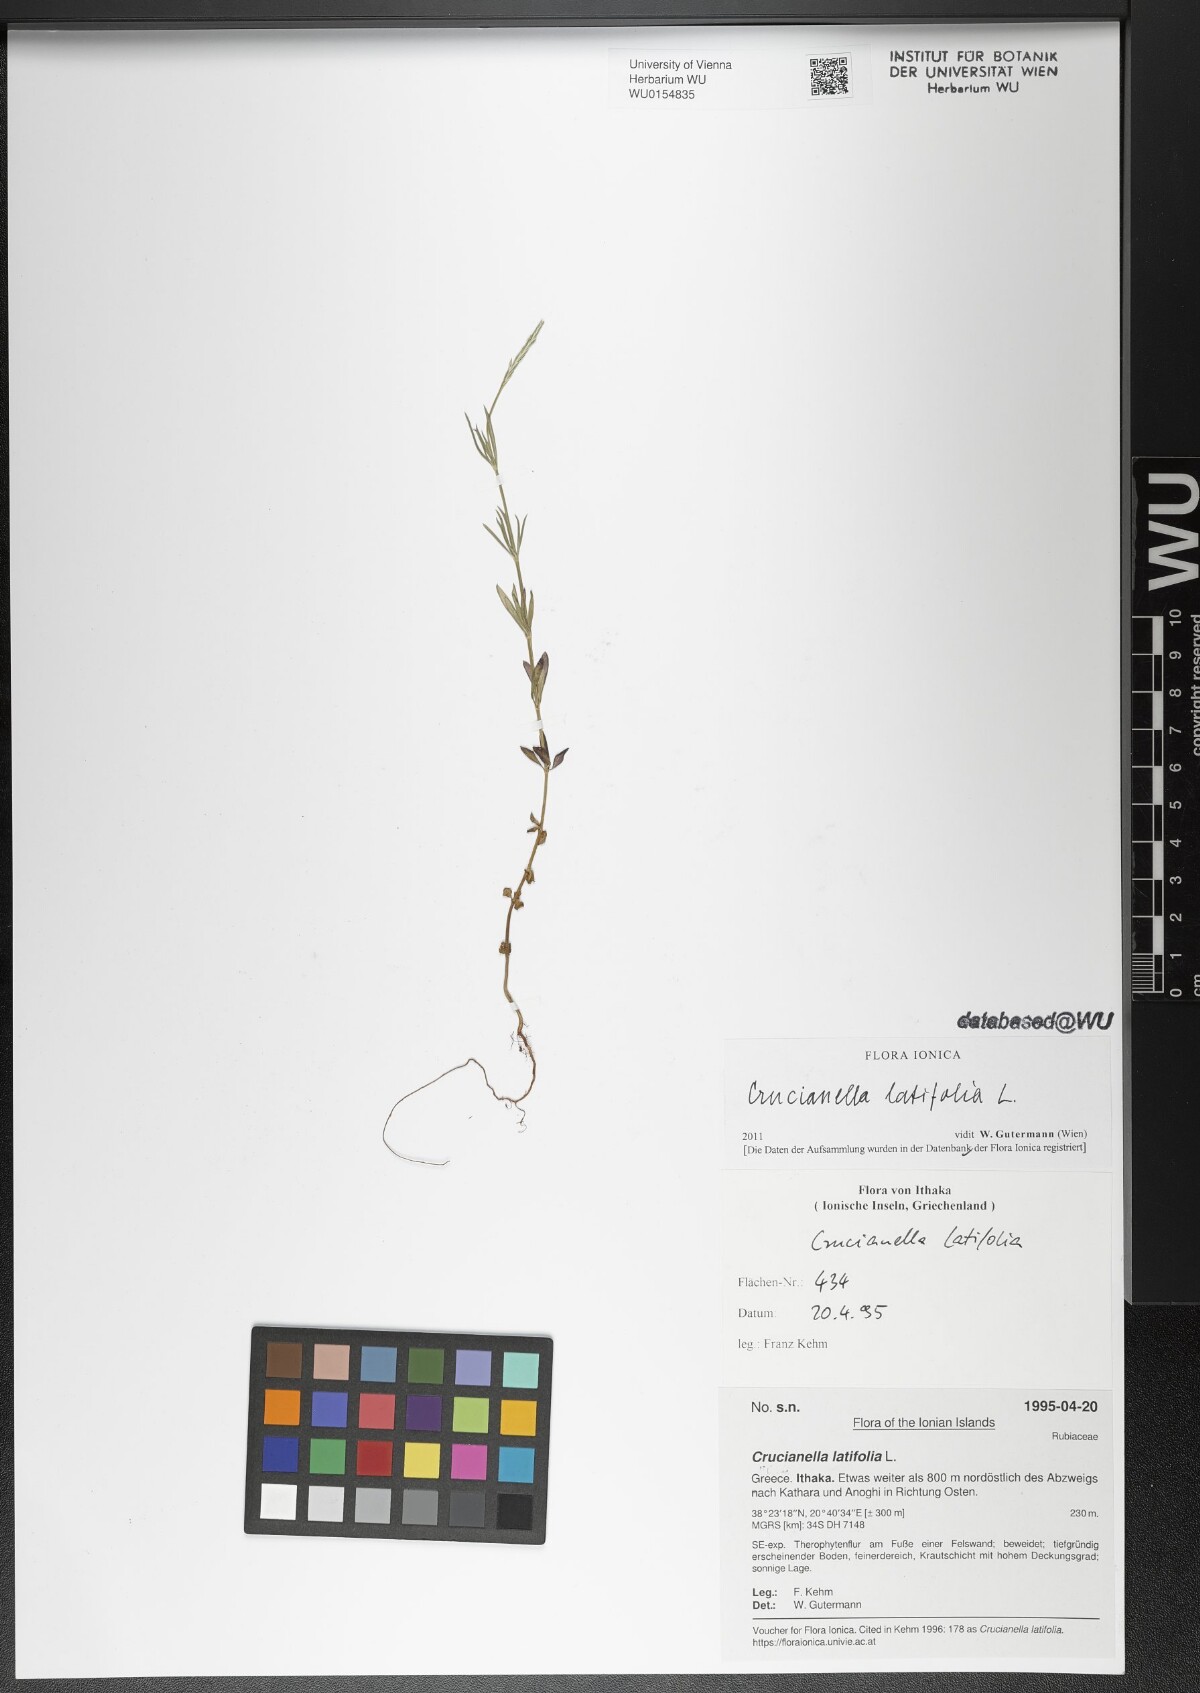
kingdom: Plantae
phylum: Tracheophyta
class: Magnoliopsida
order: Gentianales
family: Rubiaceae
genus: Crucianella
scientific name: Crucianella latifolia
